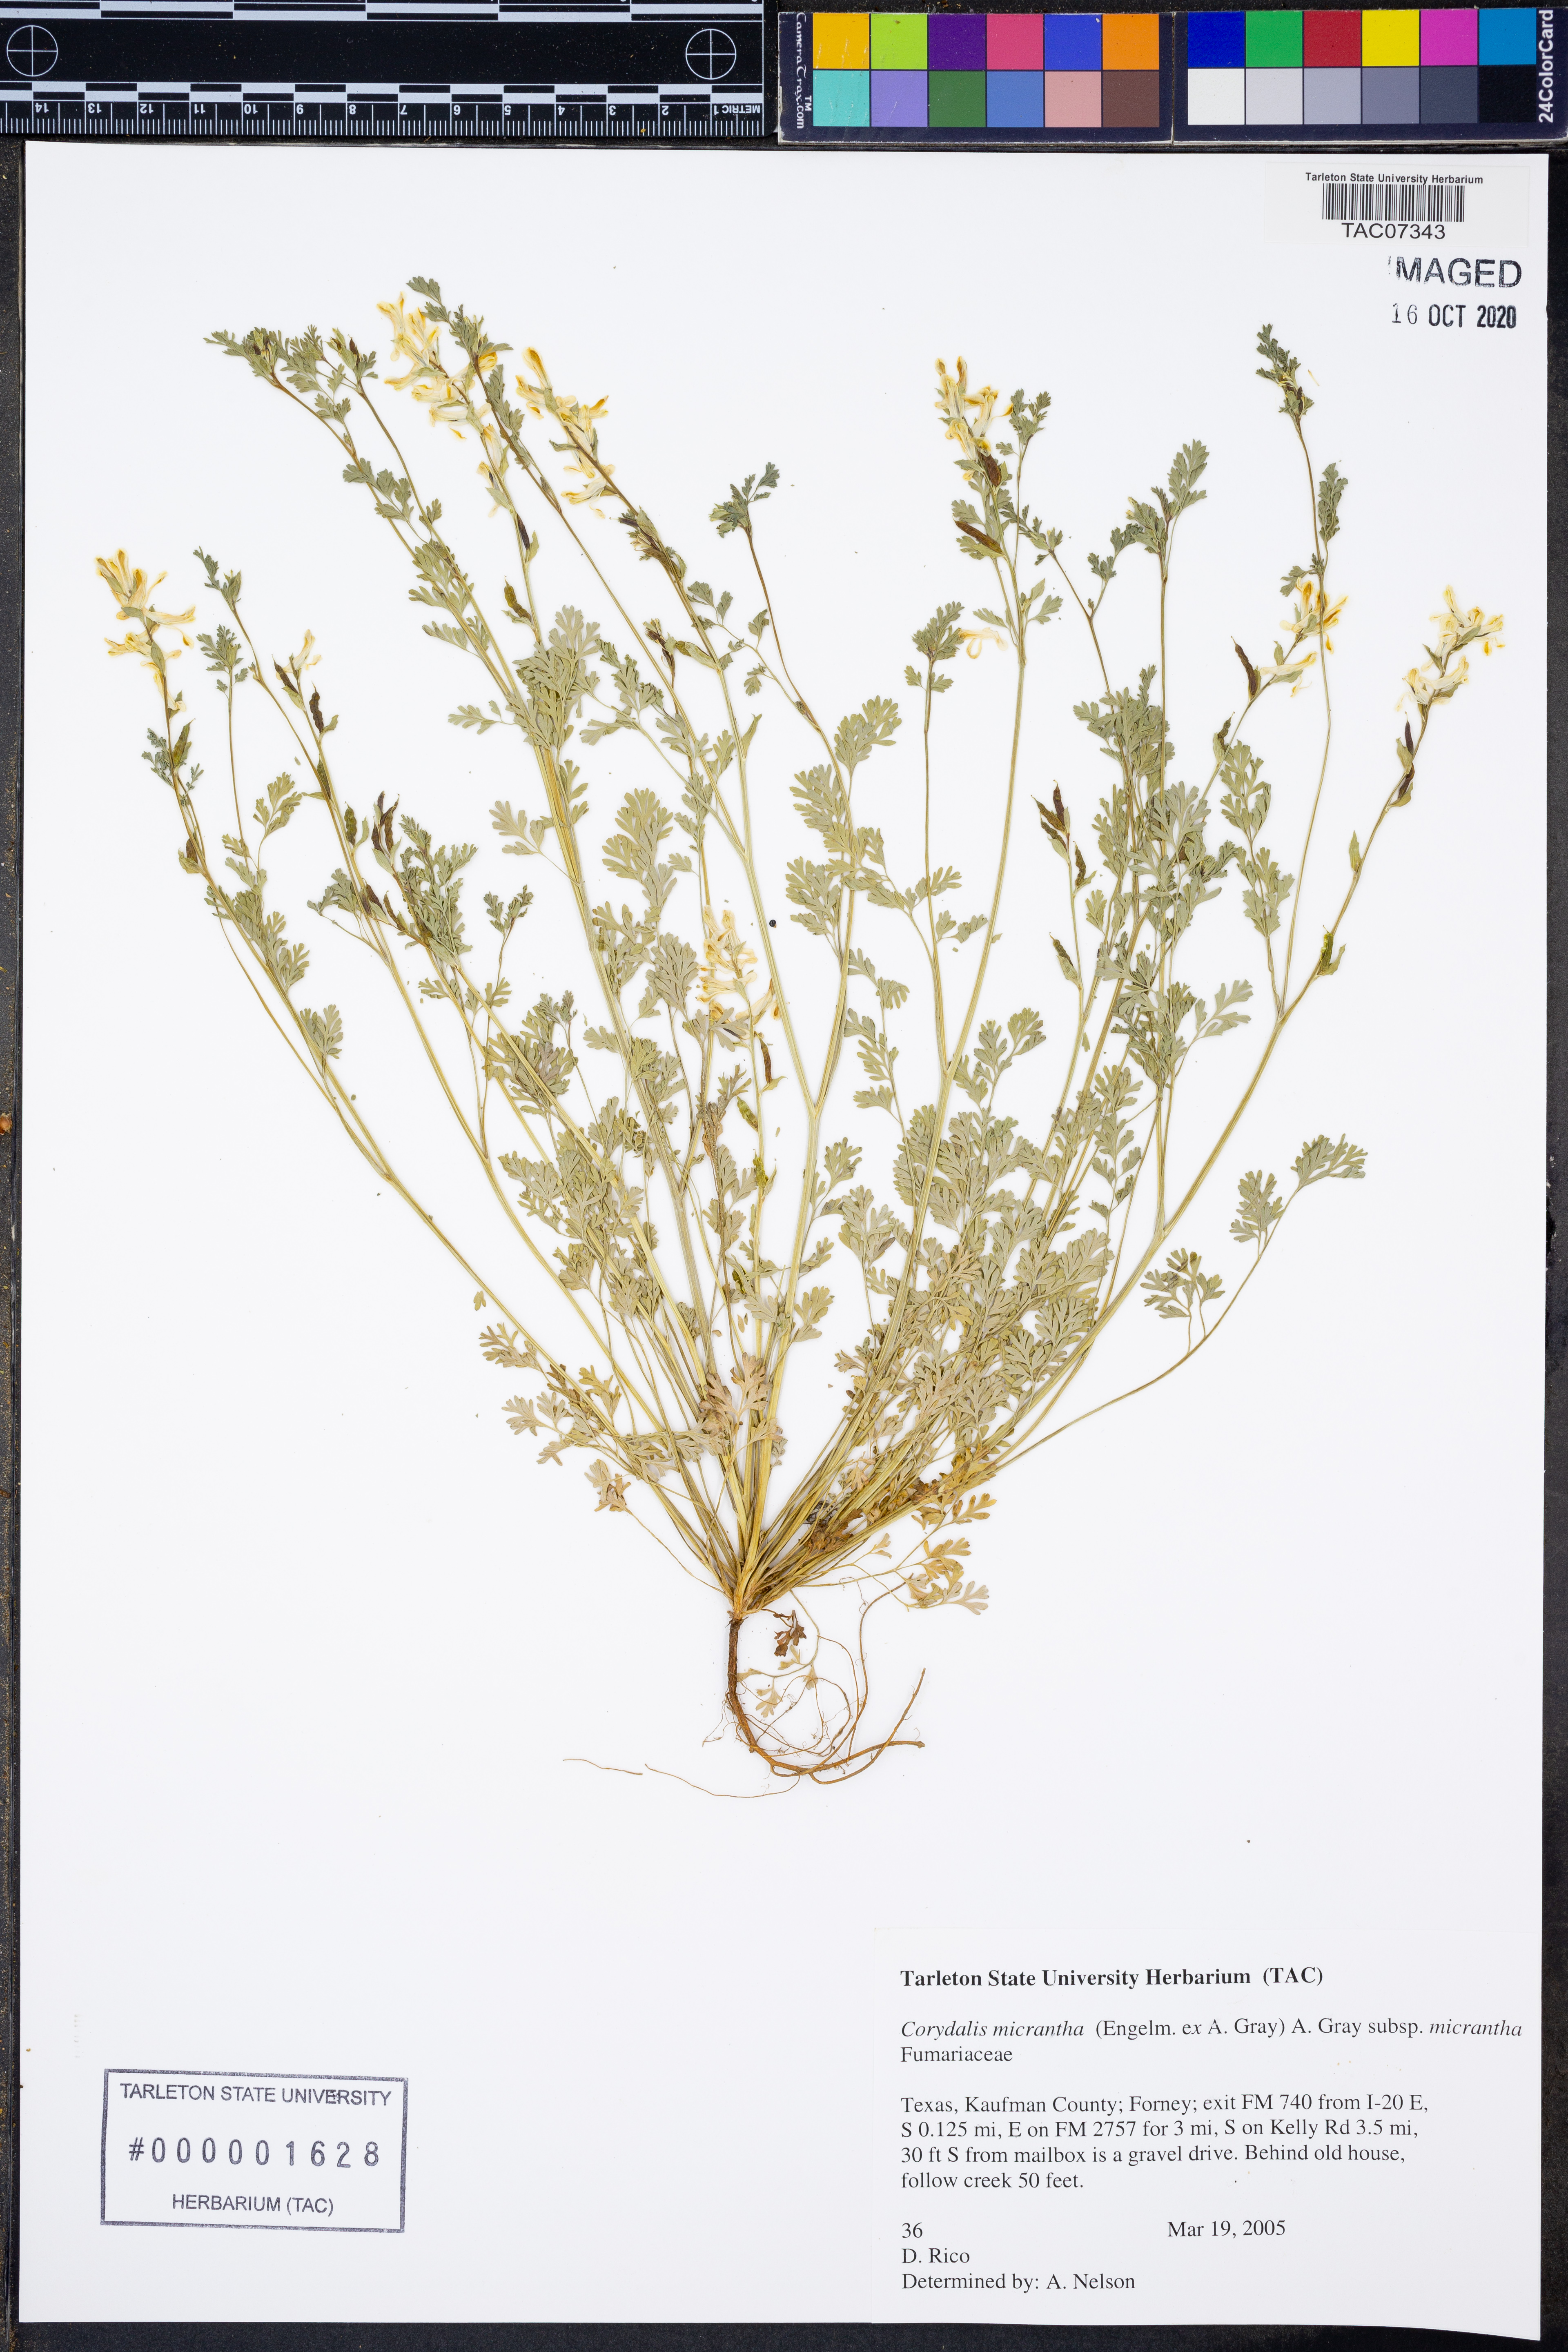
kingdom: Plantae
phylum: Tracheophyta
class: Magnoliopsida
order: Ranunculales
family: Papaveraceae
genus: Corydalis
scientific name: Corydalis micrantha
